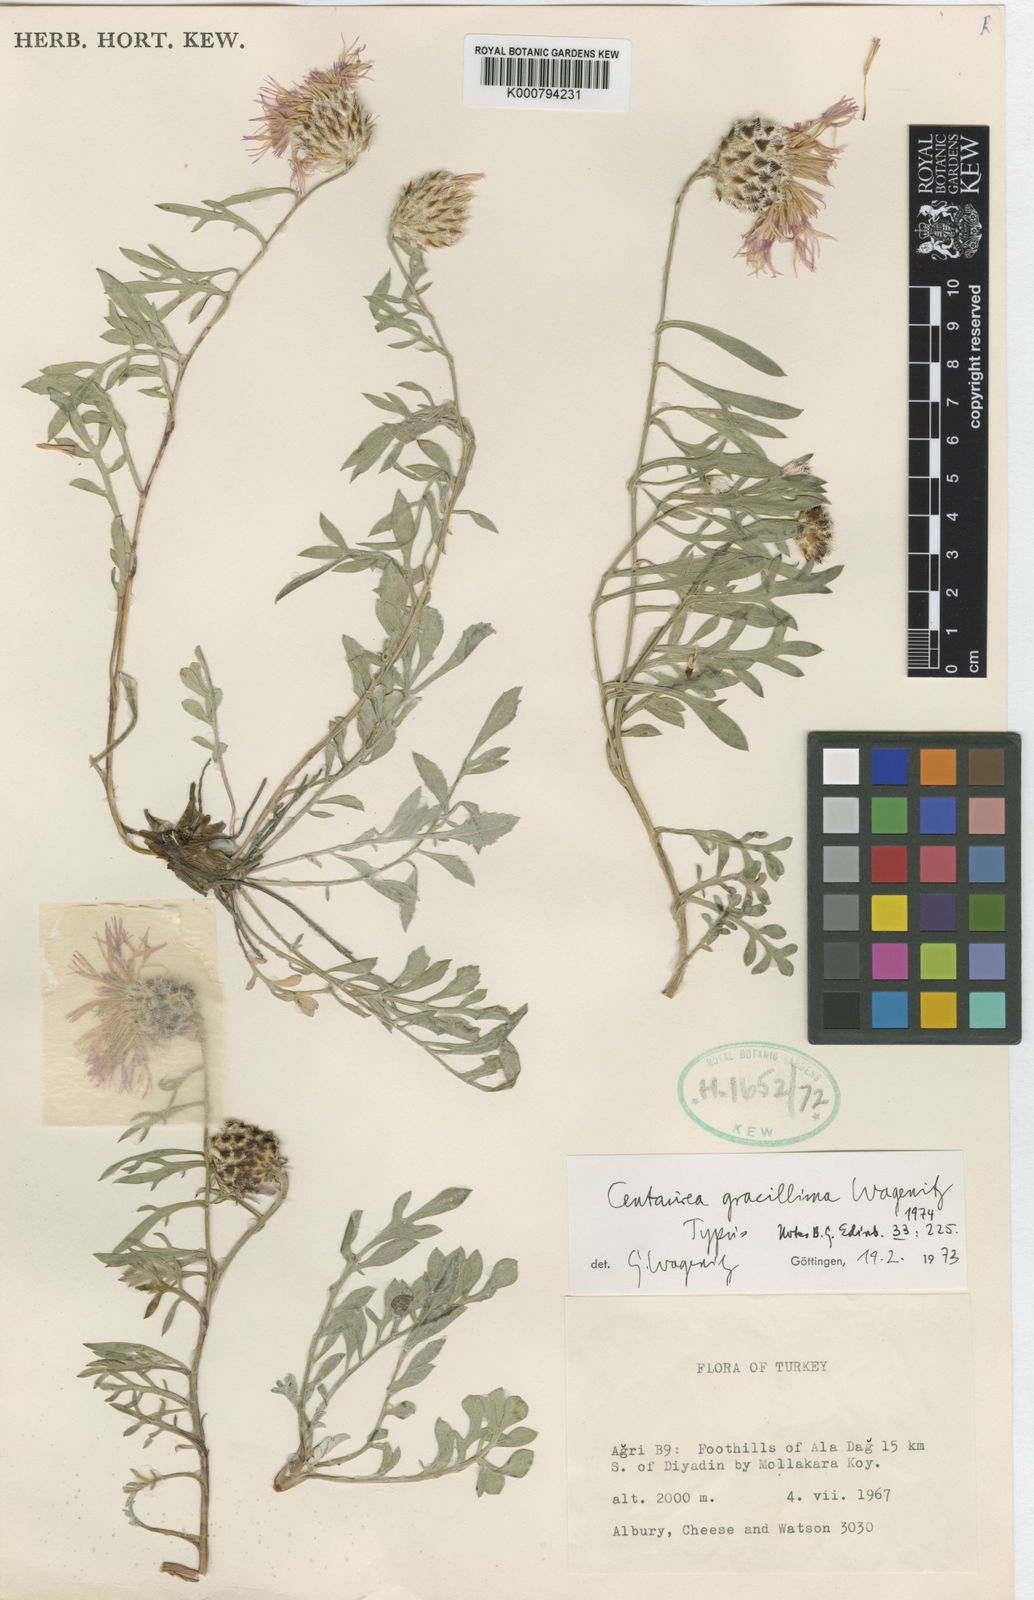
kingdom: Plantae
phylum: Tracheophyta
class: Magnoliopsida
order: Asterales
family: Asteraceae
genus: Psephellus
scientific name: Psephellus gracillimus
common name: Centaury
